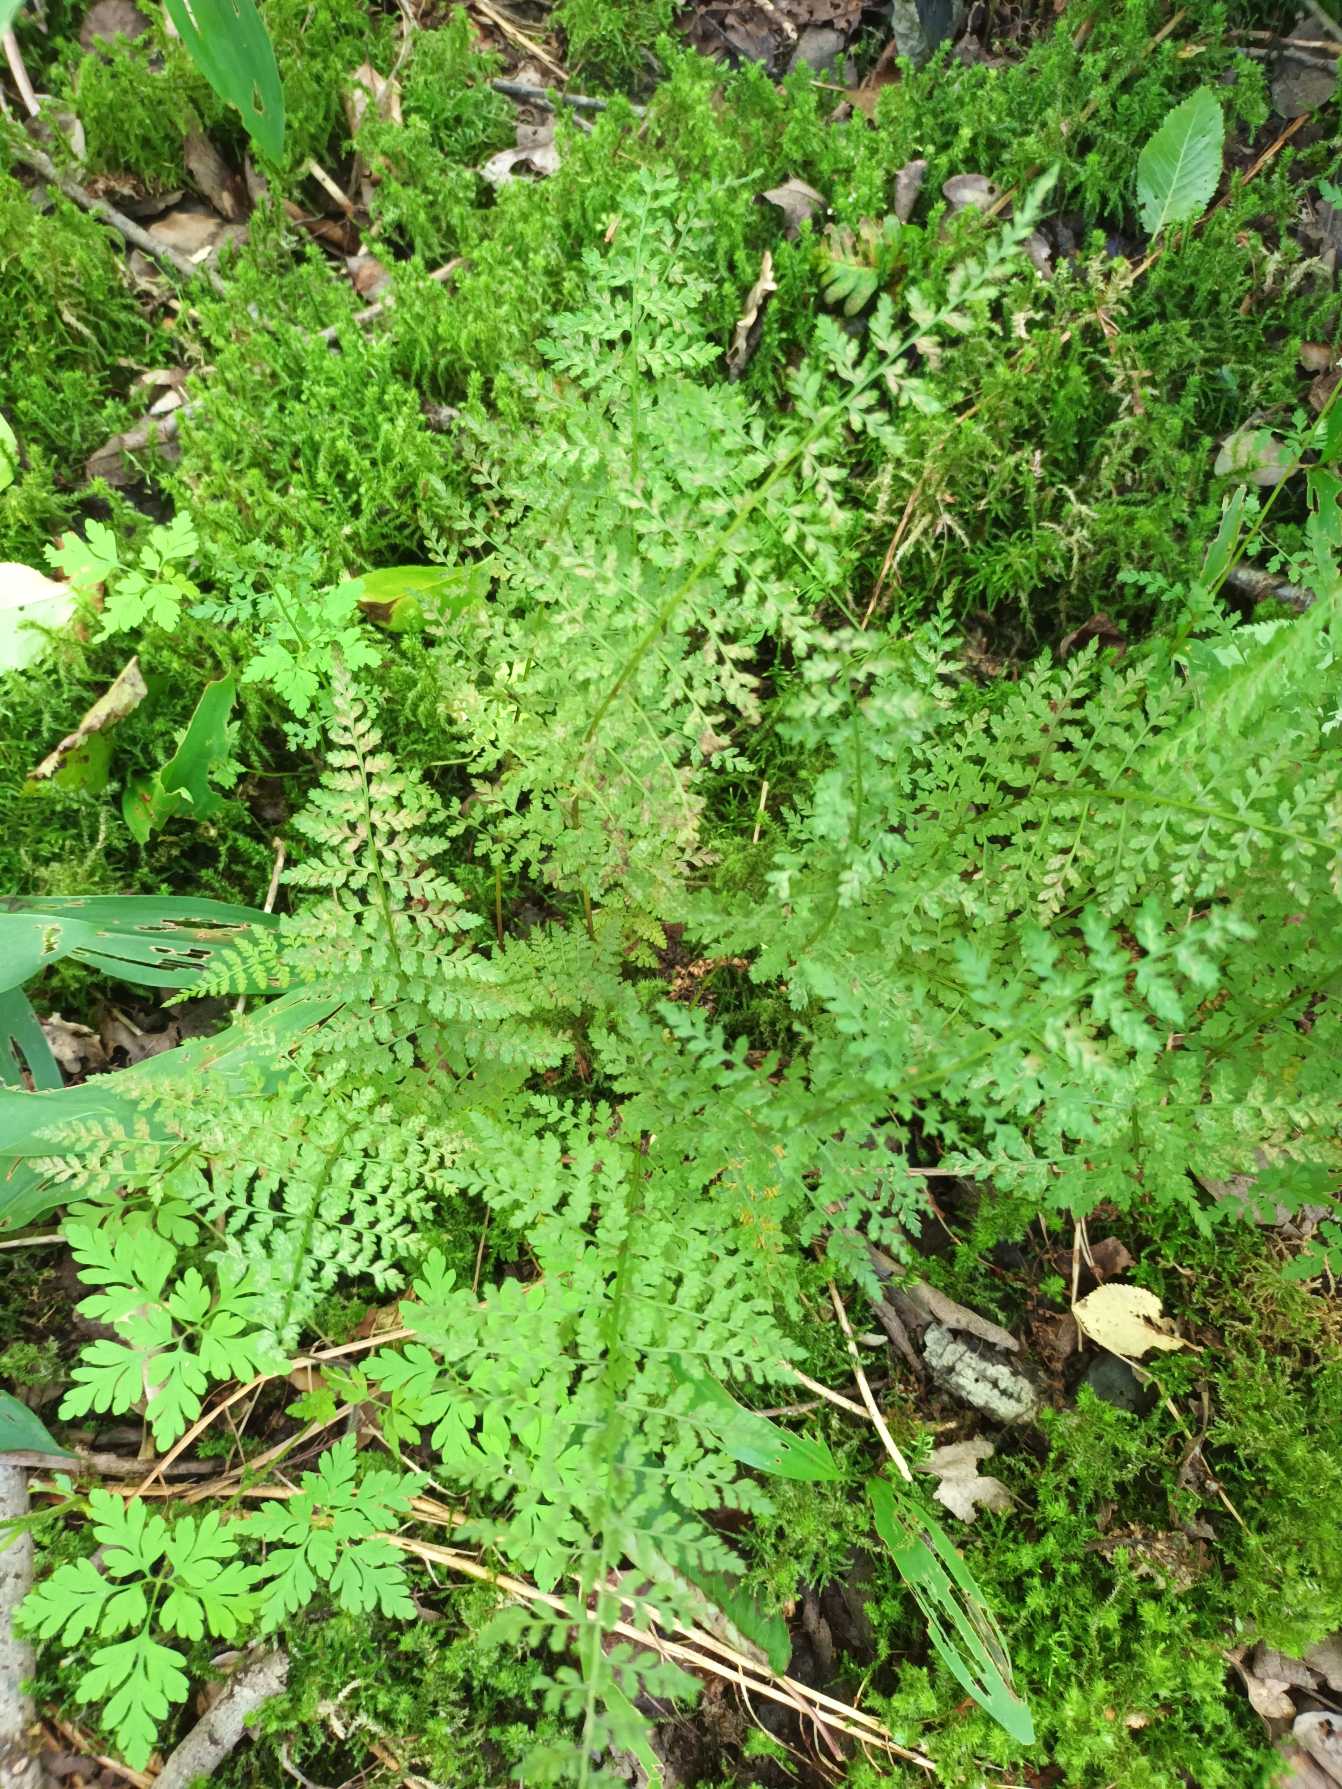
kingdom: Plantae
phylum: Tracheophyta
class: Polypodiopsida
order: Polypodiales
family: Cystopteridaceae
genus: Cystopteris
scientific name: Cystopteris fragilis
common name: Bægerbregne
